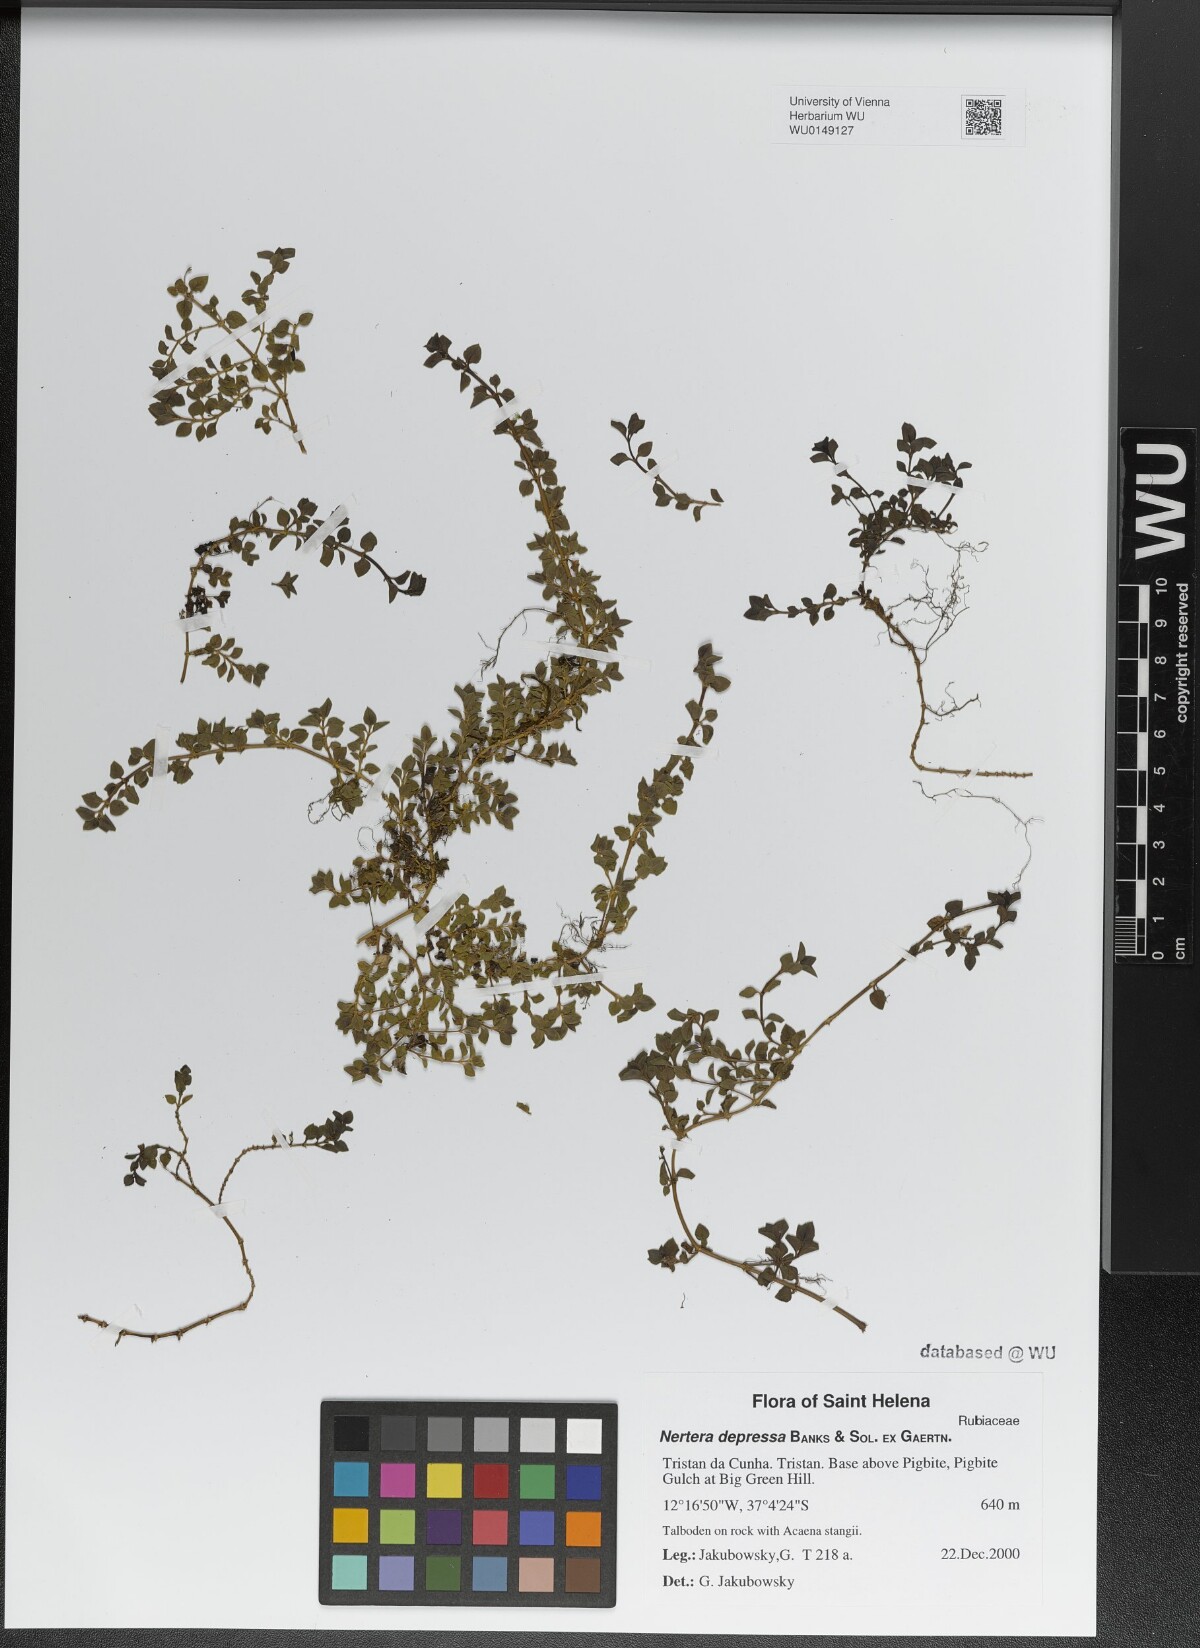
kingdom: Plantae
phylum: Tracheophyta
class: Magnoliopsida
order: Gentianales
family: Rubiaceae
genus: Nertera
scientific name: Nertera granadensis
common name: Beadplant
